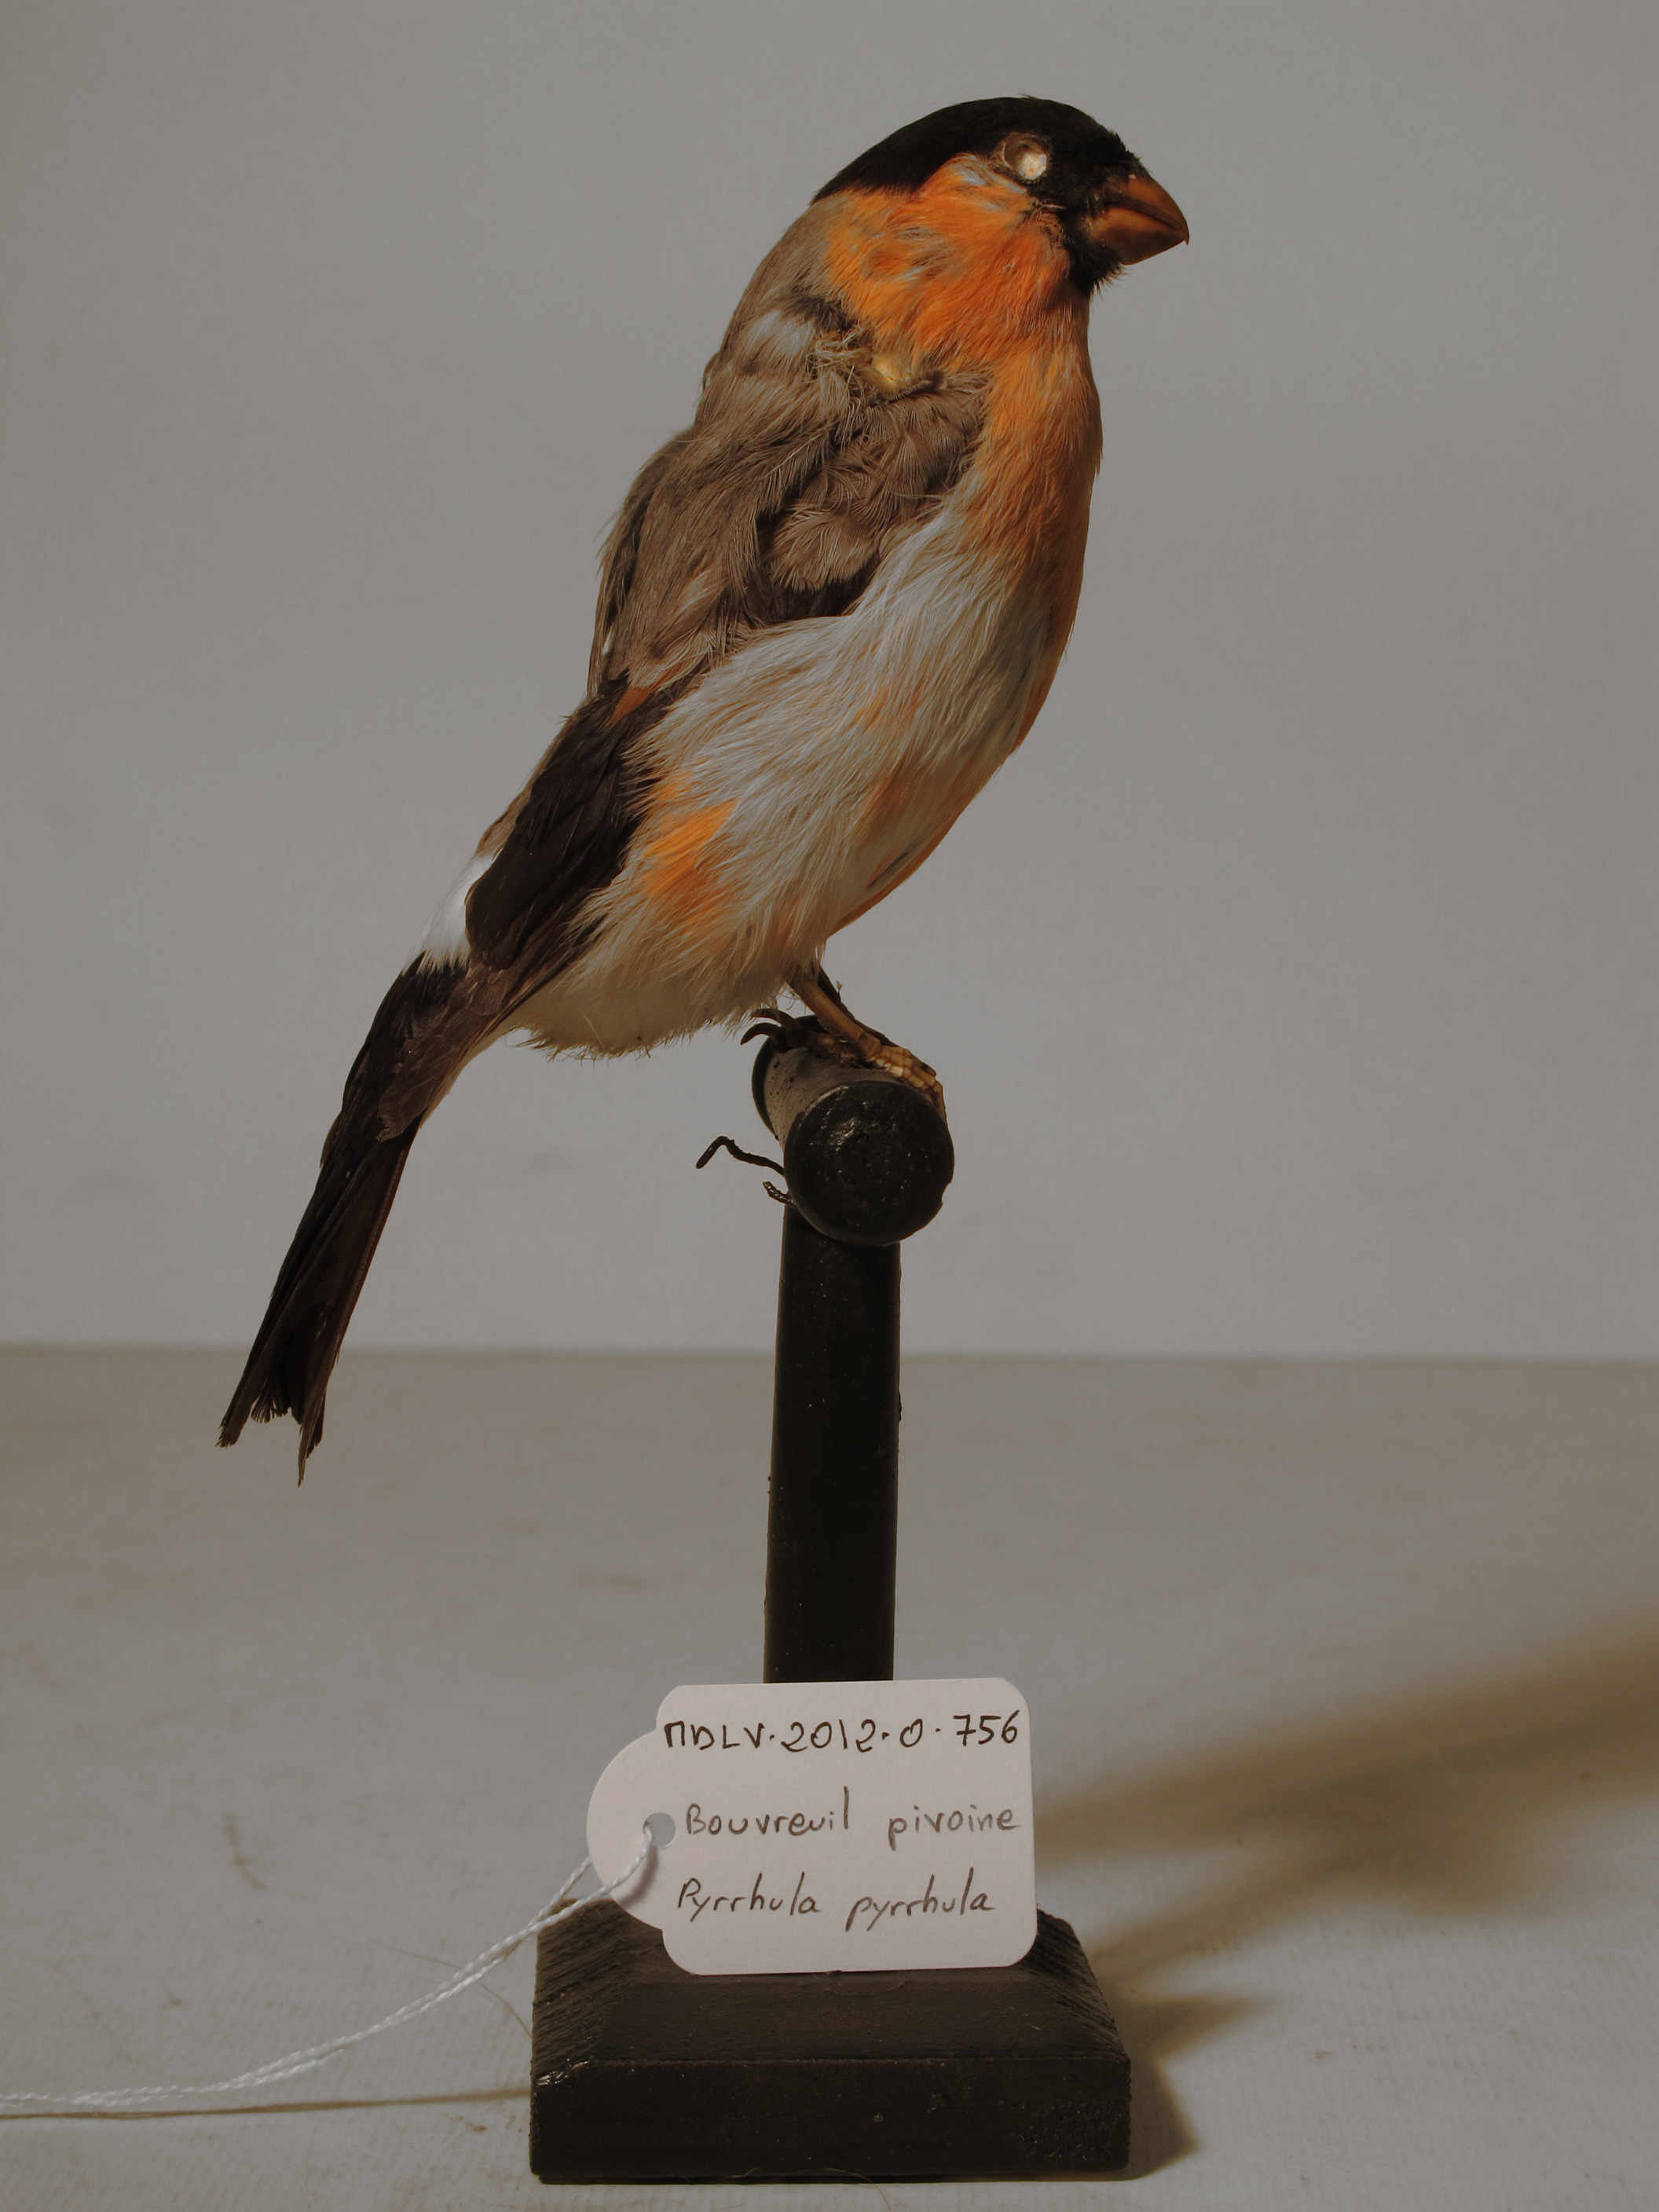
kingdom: Animalia
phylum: Chordata
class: Aves
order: Passeriformes
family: Fringillidae
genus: Pyrrhula
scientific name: Pyrrhula pyrrhula
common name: Eurasian Bullfinch
